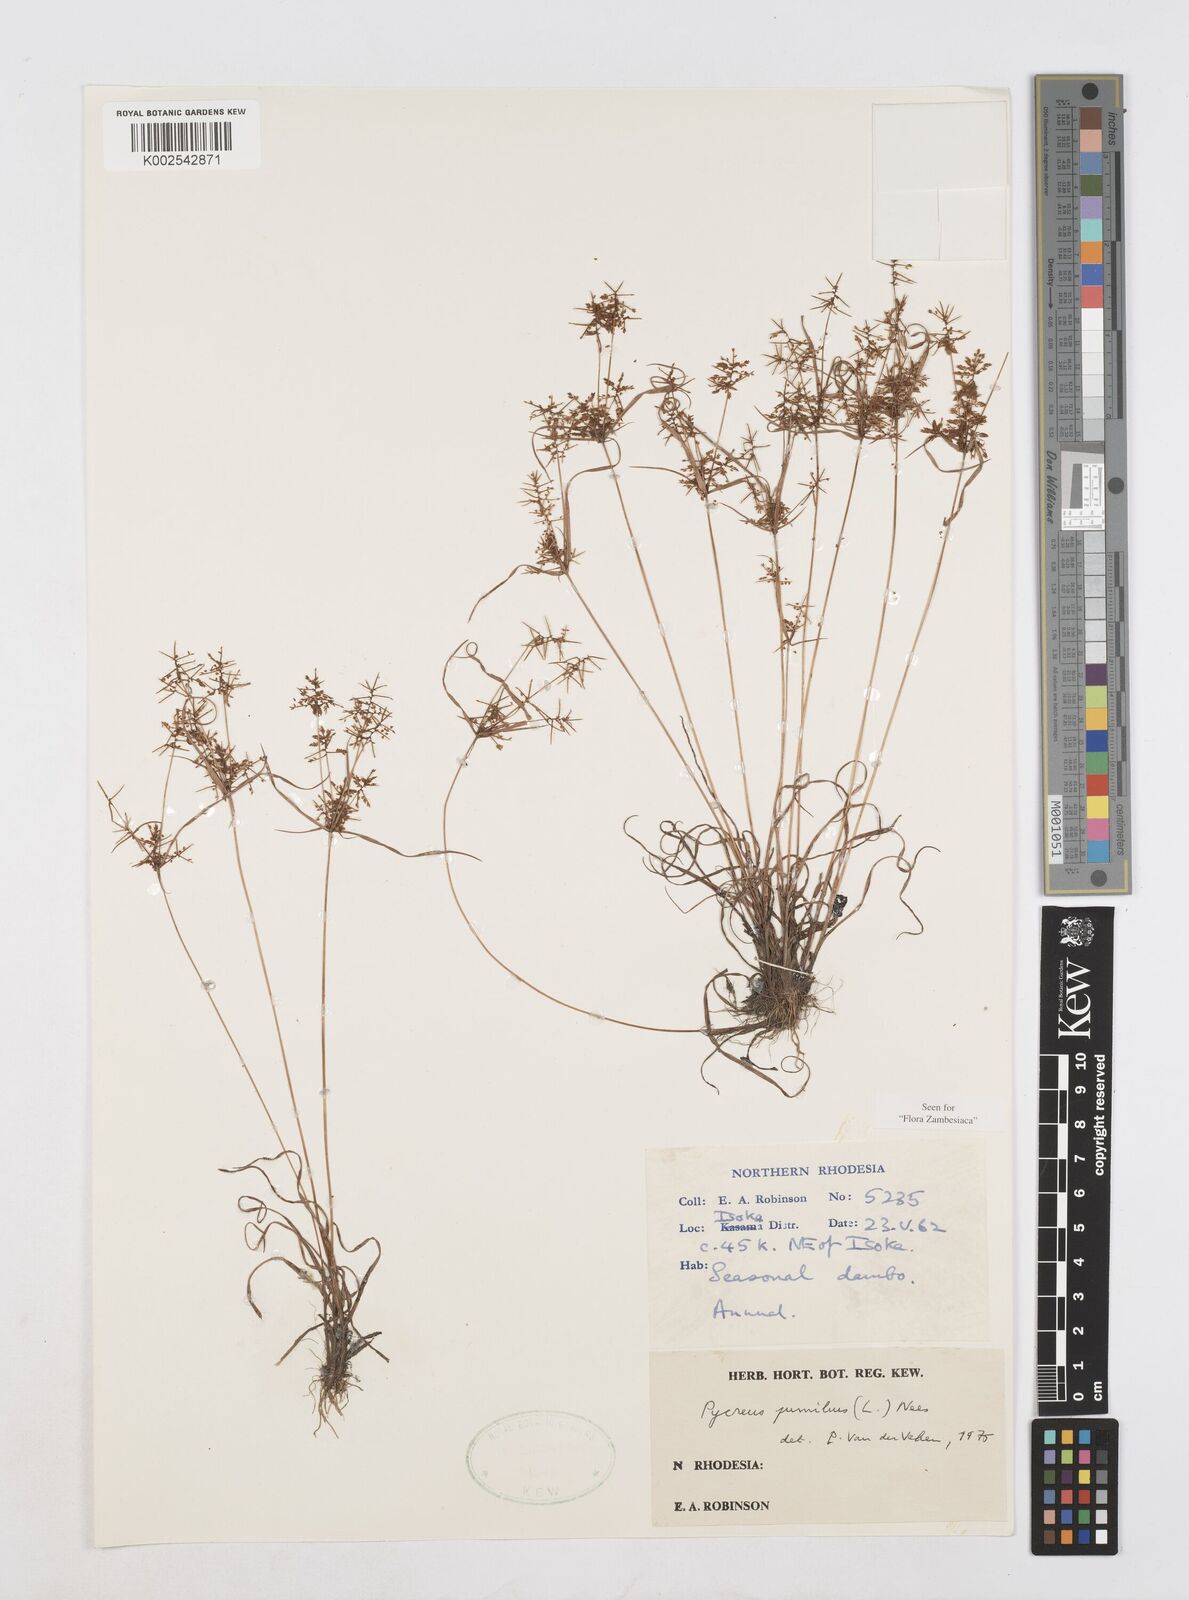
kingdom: Plantae
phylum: Tracheophyta
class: Liliopsida
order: Poales
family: Cyperaceae
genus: Cyperus
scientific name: Cyperus pumilus
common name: Low flatsedge
